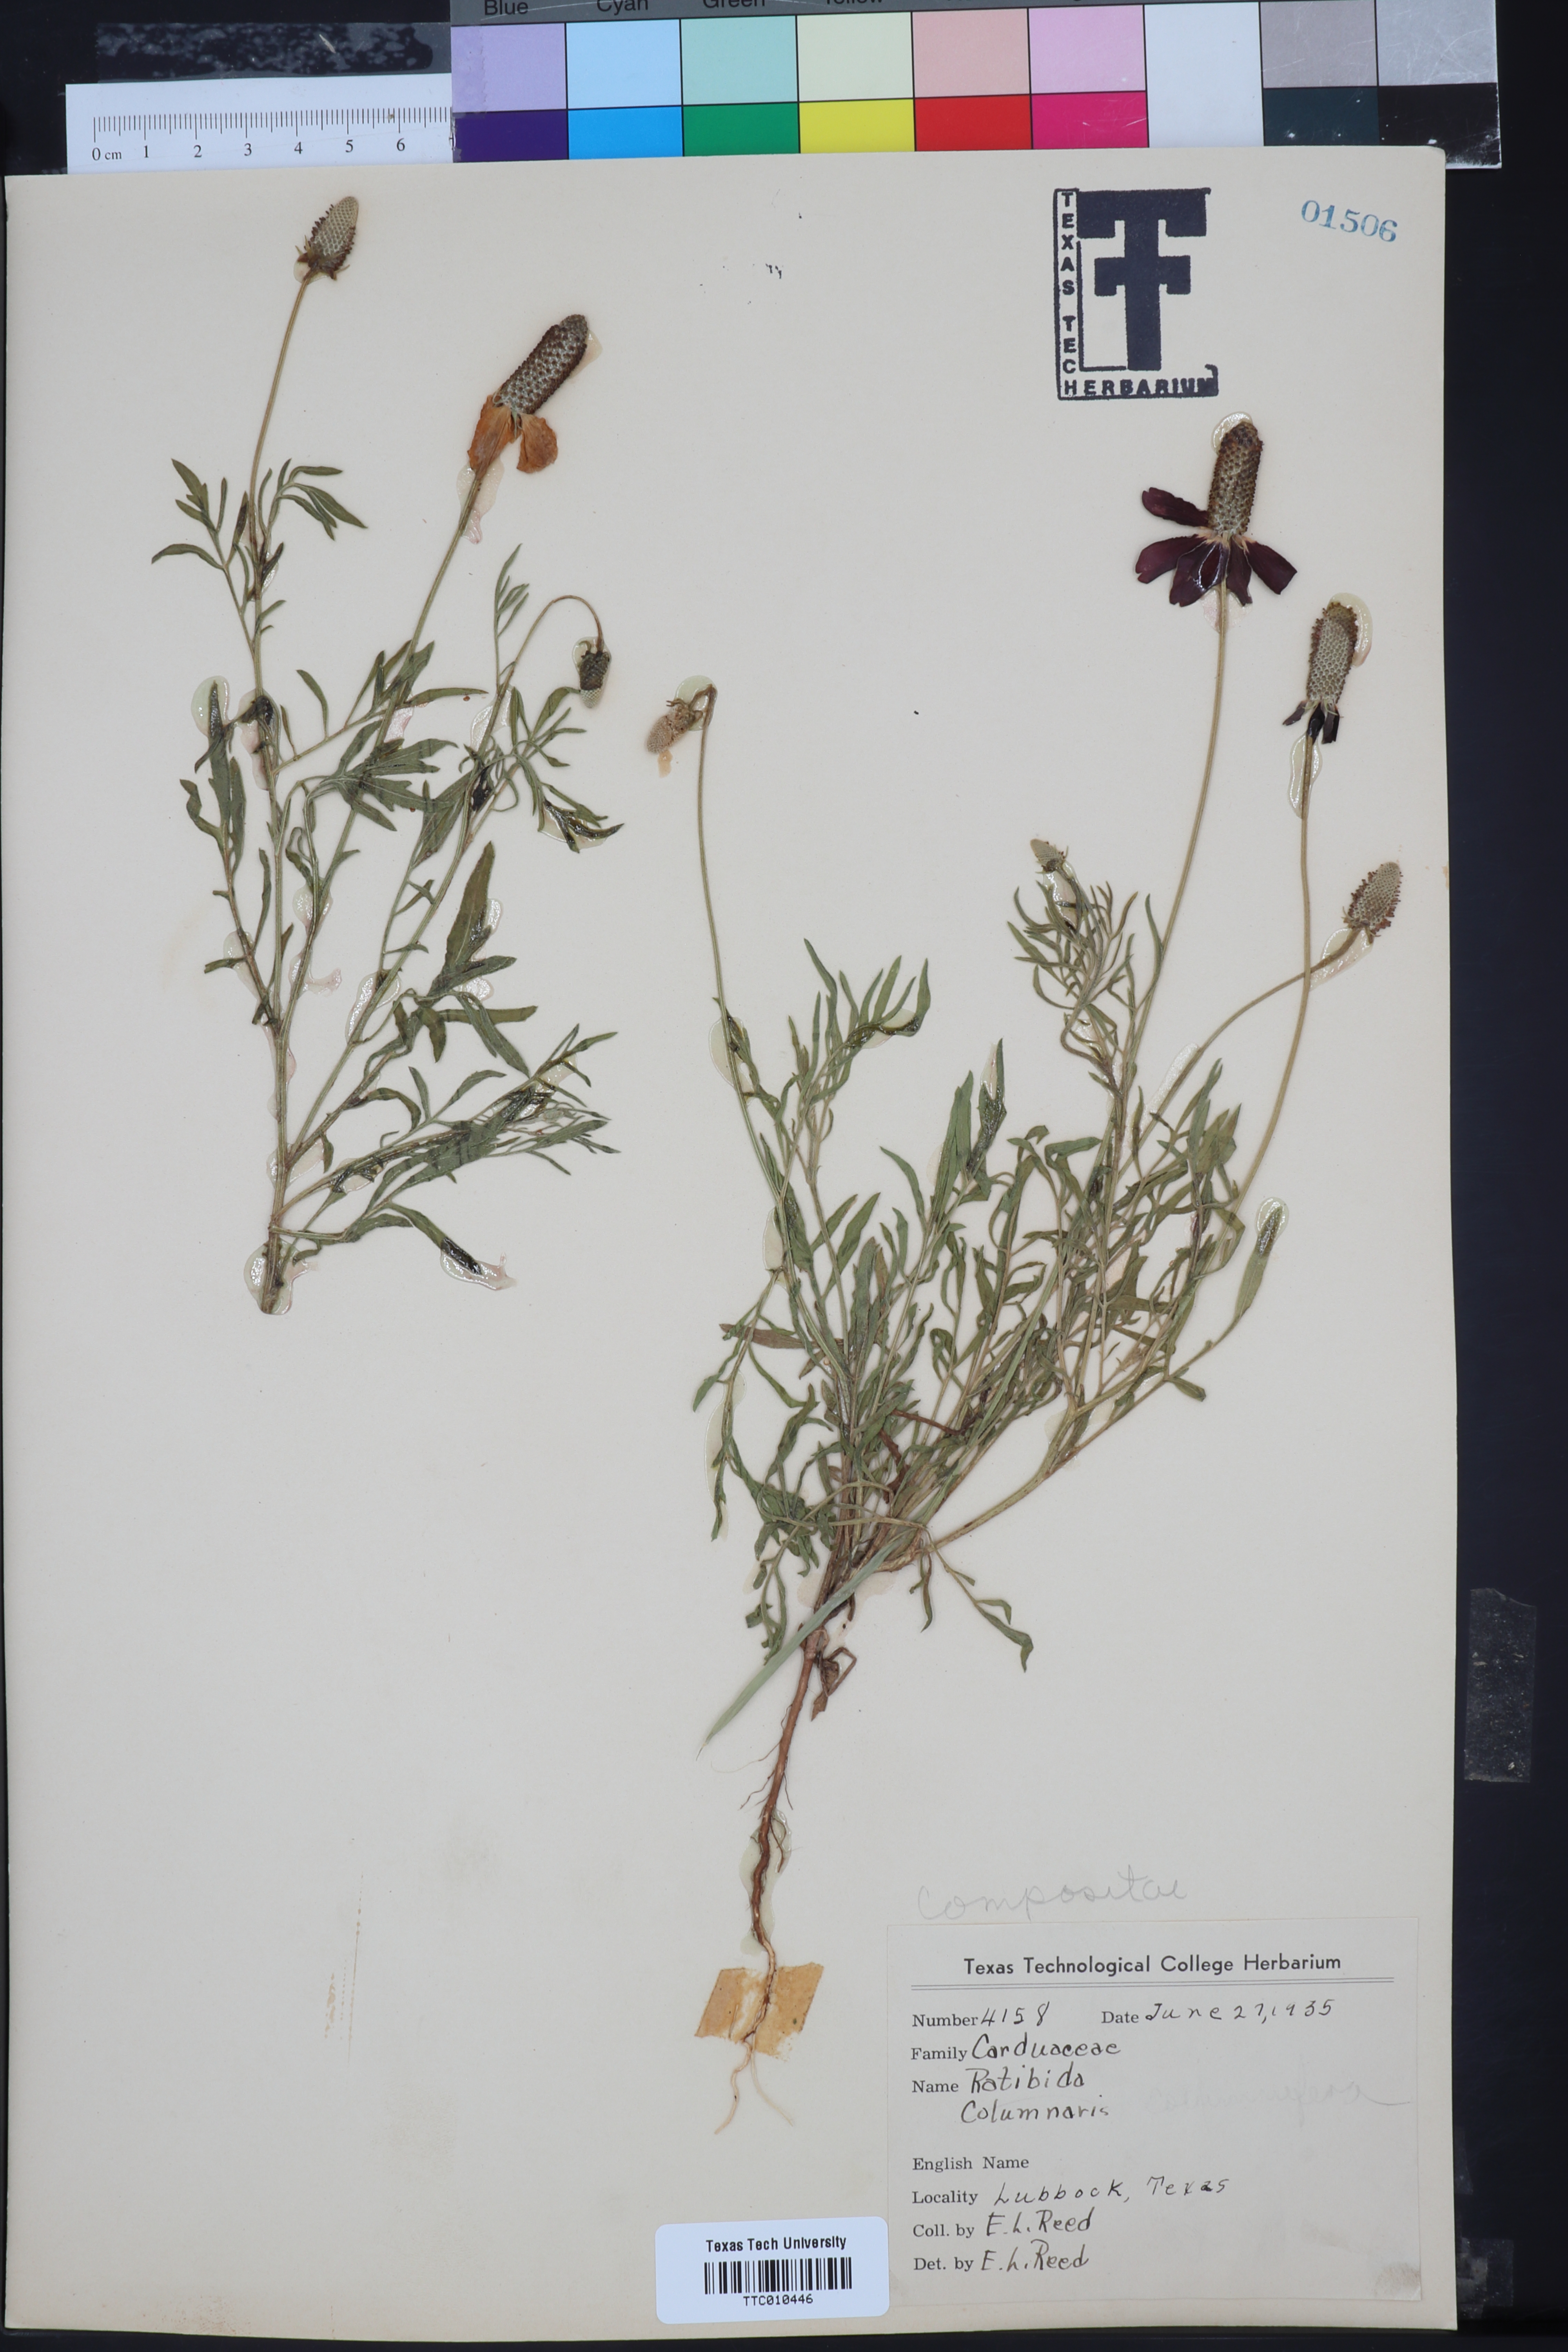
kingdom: Plantae
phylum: Tracheophyta
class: Magnoliopsida
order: Asterales
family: Asteraceae
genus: Ratibida
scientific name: Ratibida columnifera
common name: Prairie coneflower
